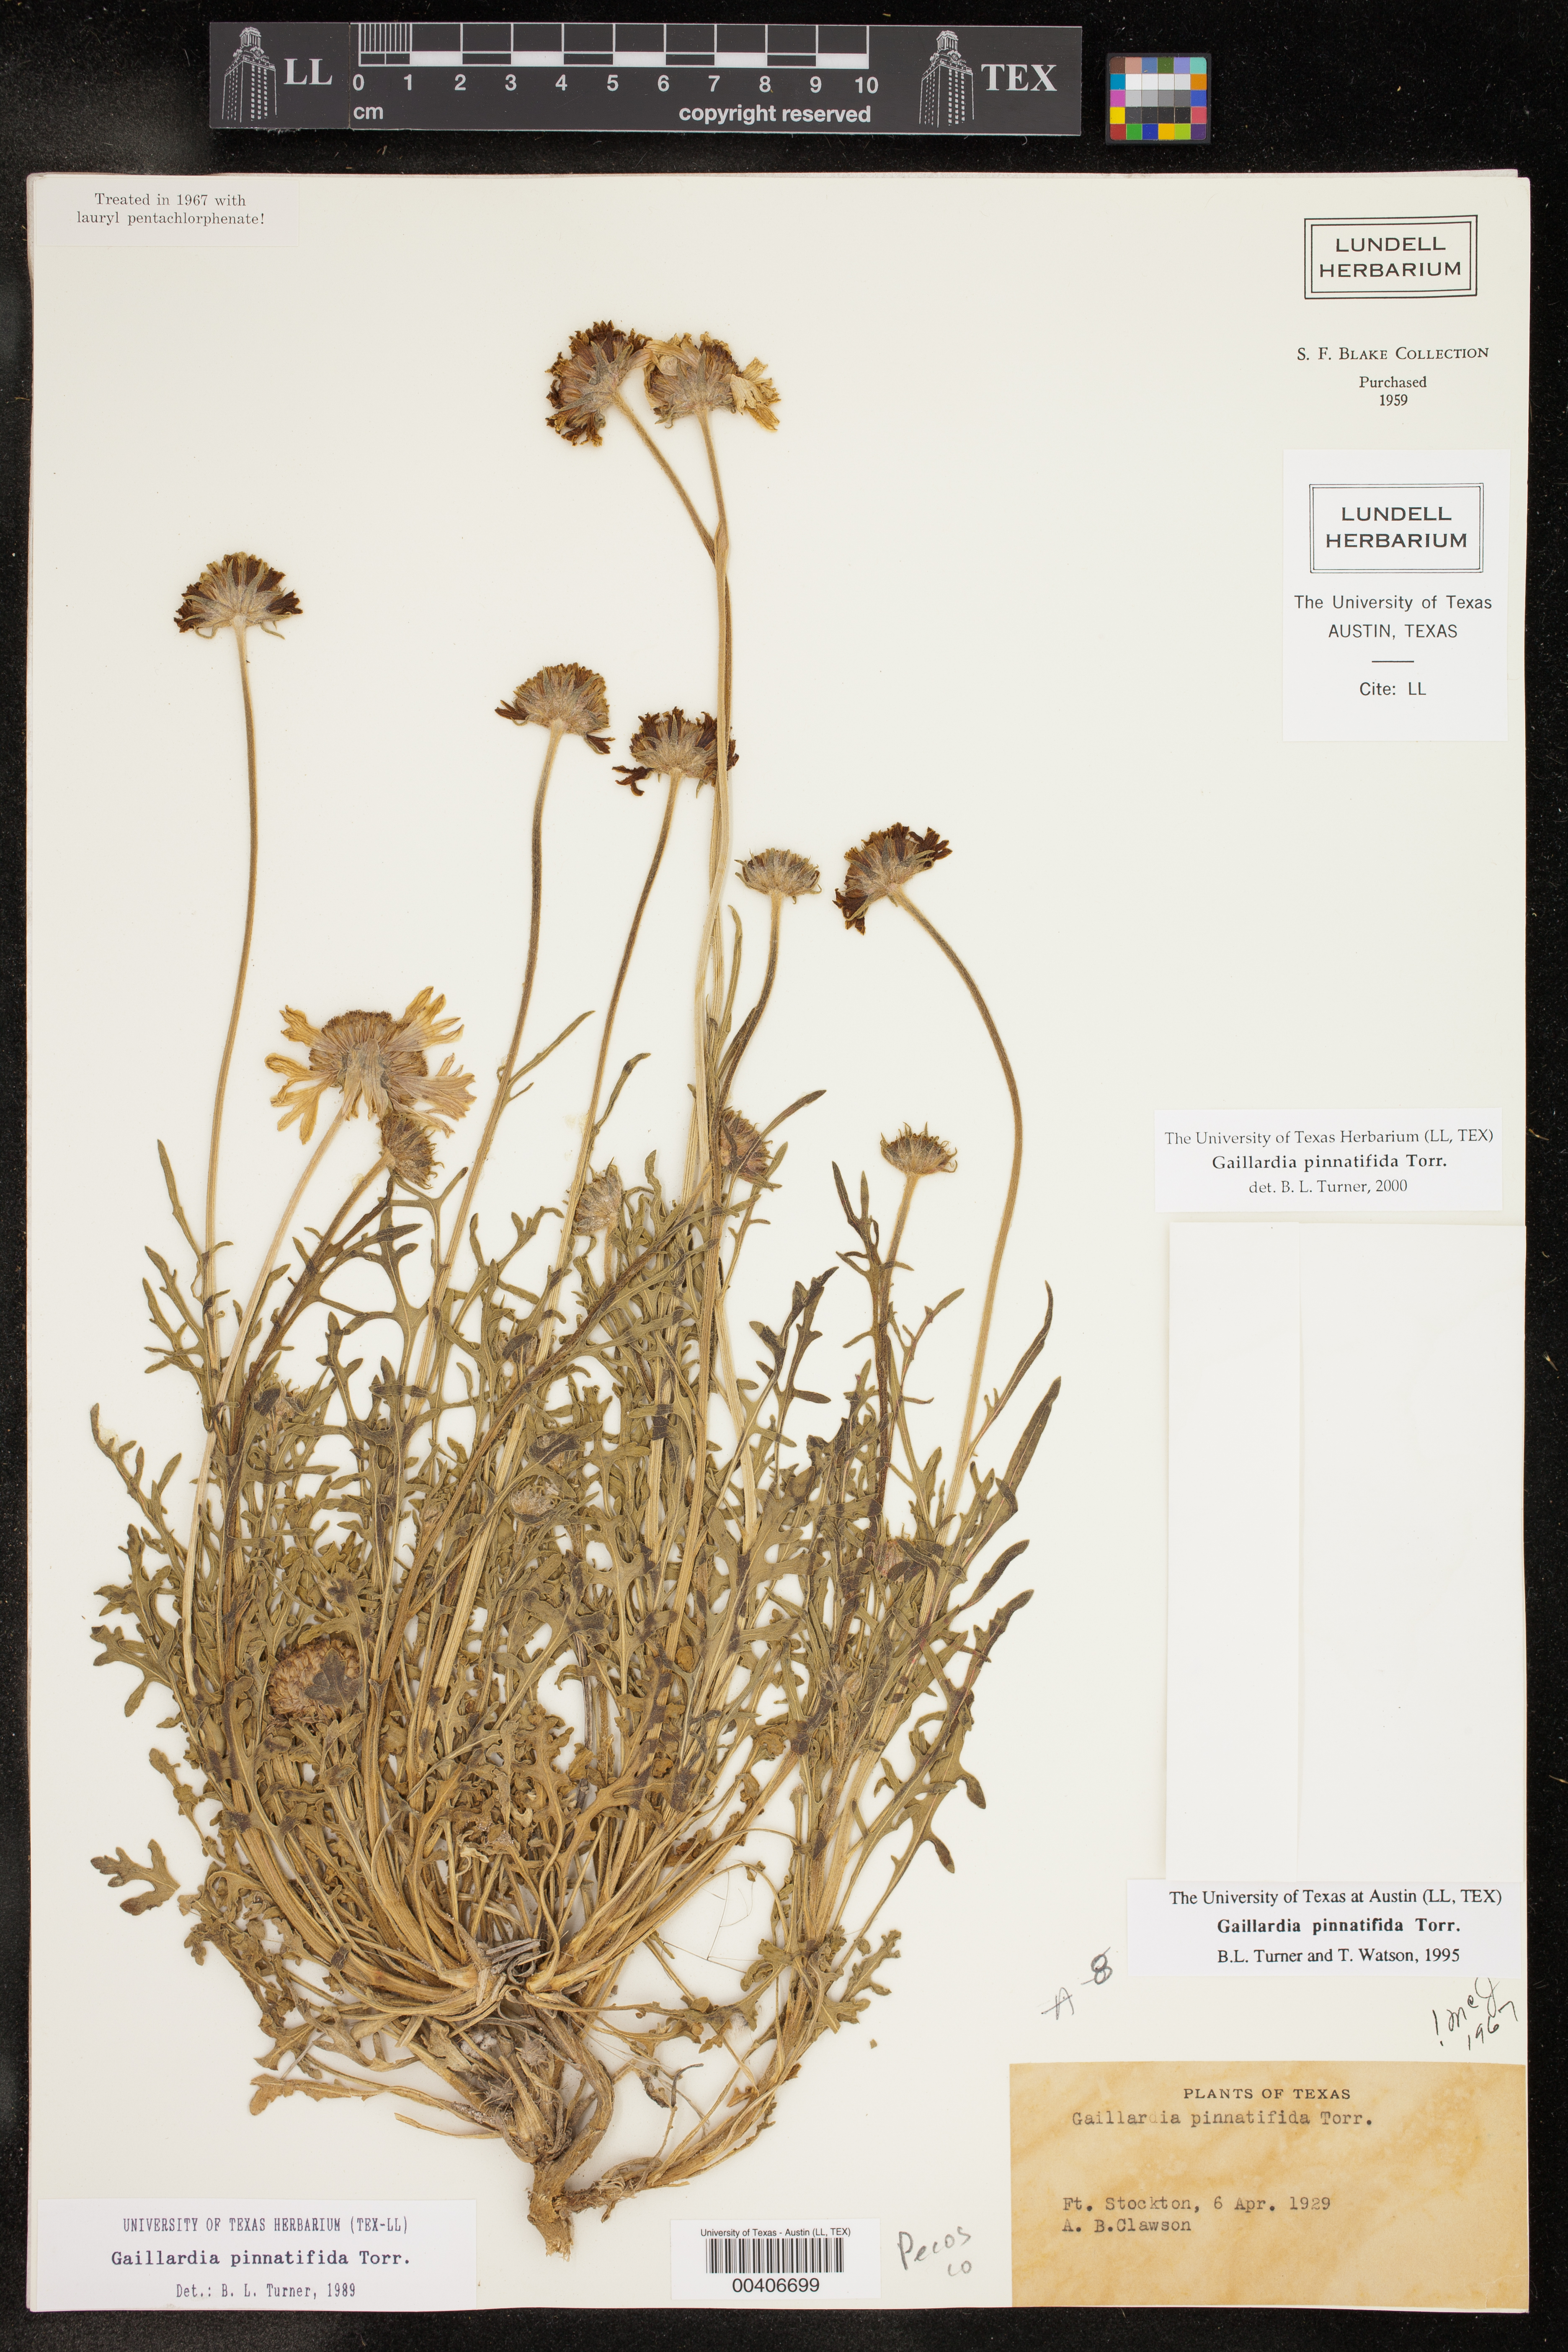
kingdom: Plantae
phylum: Tracheophyta
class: Magnoliopsida
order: Asterales
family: Asteraceae
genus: Gaillardia
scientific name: Gaillardia pinnatifida
